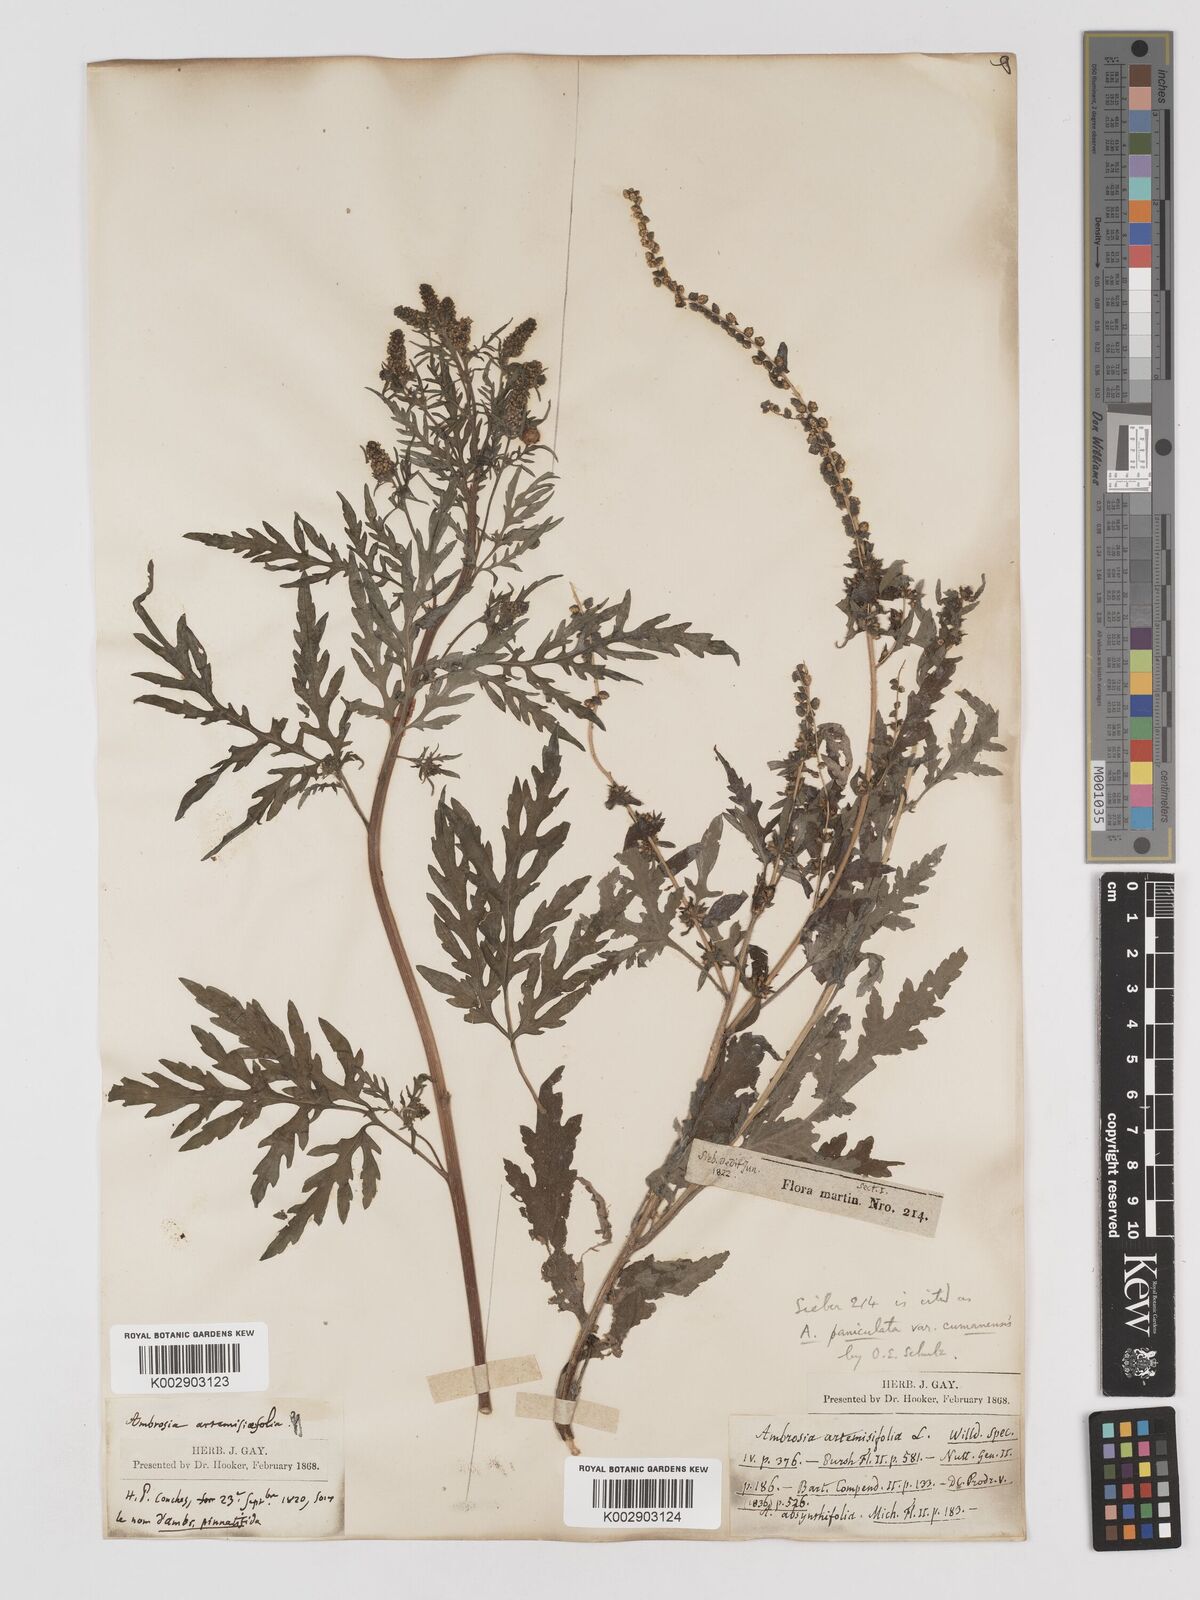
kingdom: Plantae
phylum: Tracheophyta
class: Magnoliopsida
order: Asterales
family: Asteraceae
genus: Ambrosia
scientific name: Ambrosia cumanensis
